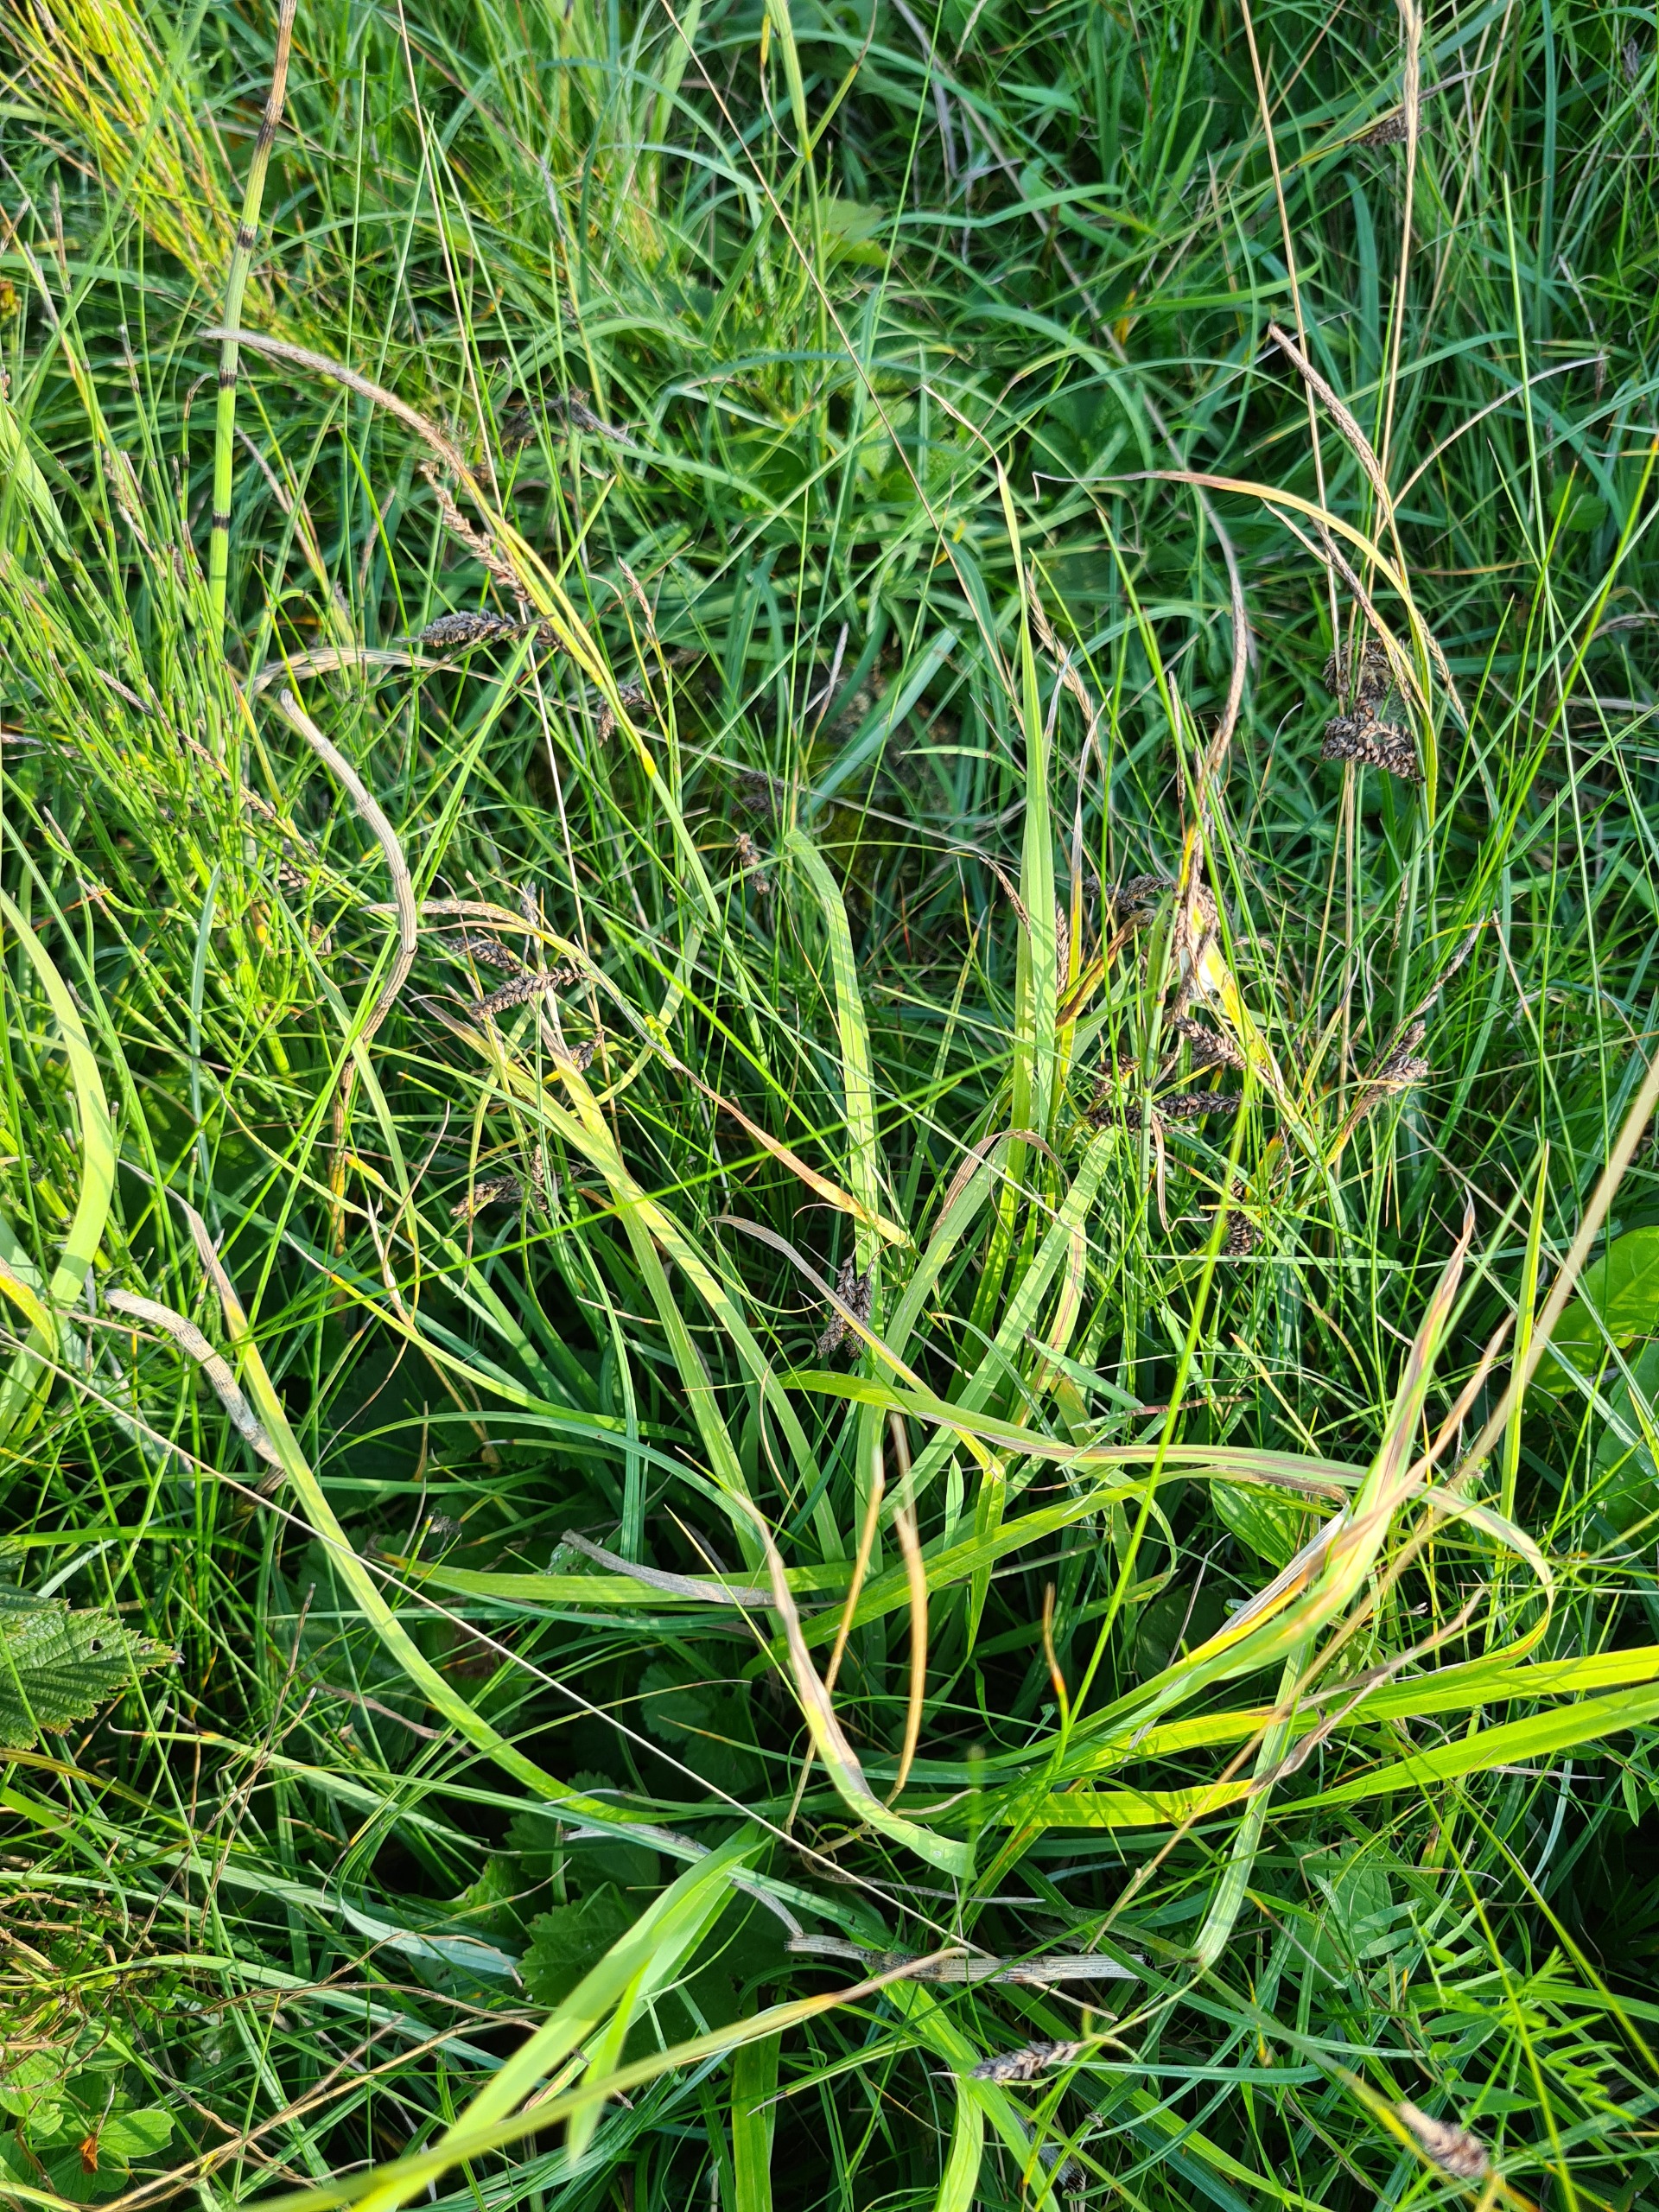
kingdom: Plantae
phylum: Tracheophyta
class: Liliopsida
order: Poales
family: Cyperaceae
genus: Carex
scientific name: Carex flacca
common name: Blågrøn star
